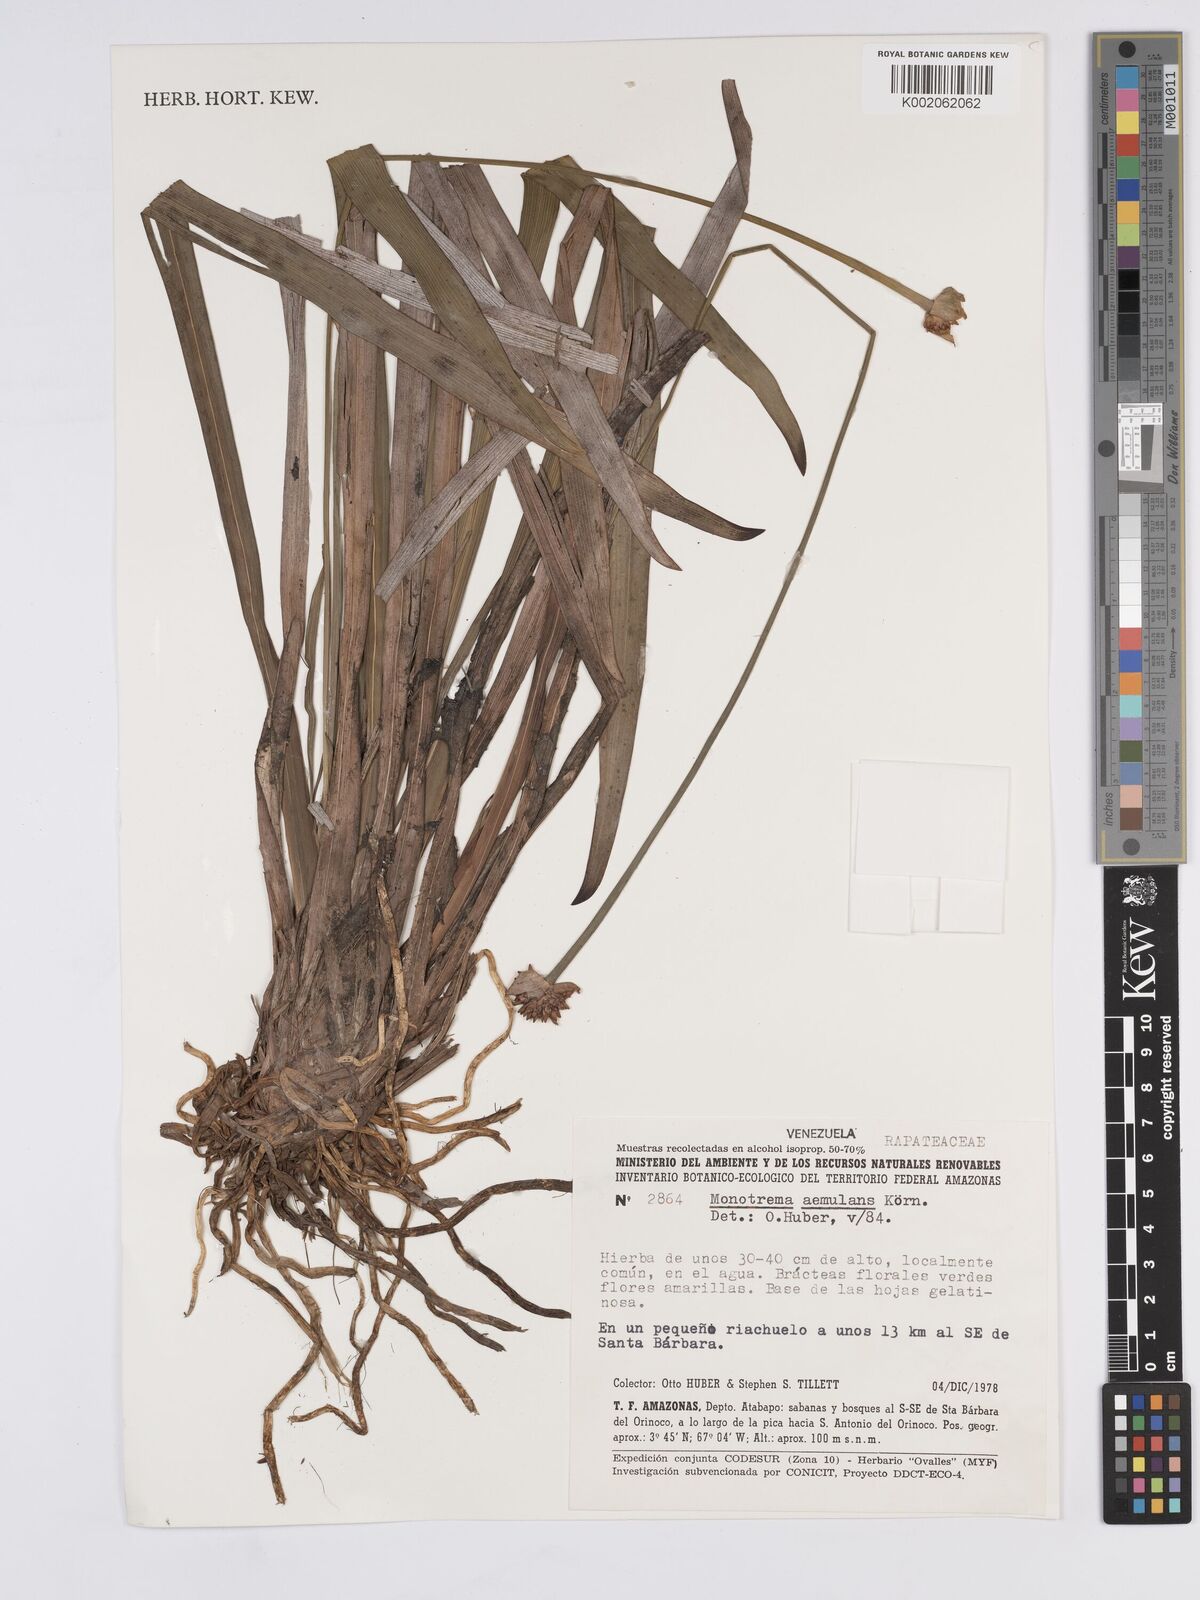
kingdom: Plantae
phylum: Tracheophyta
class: Liliopsida
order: Poales
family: Rapateaceae
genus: Monotrema
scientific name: Monotrema aemulans
